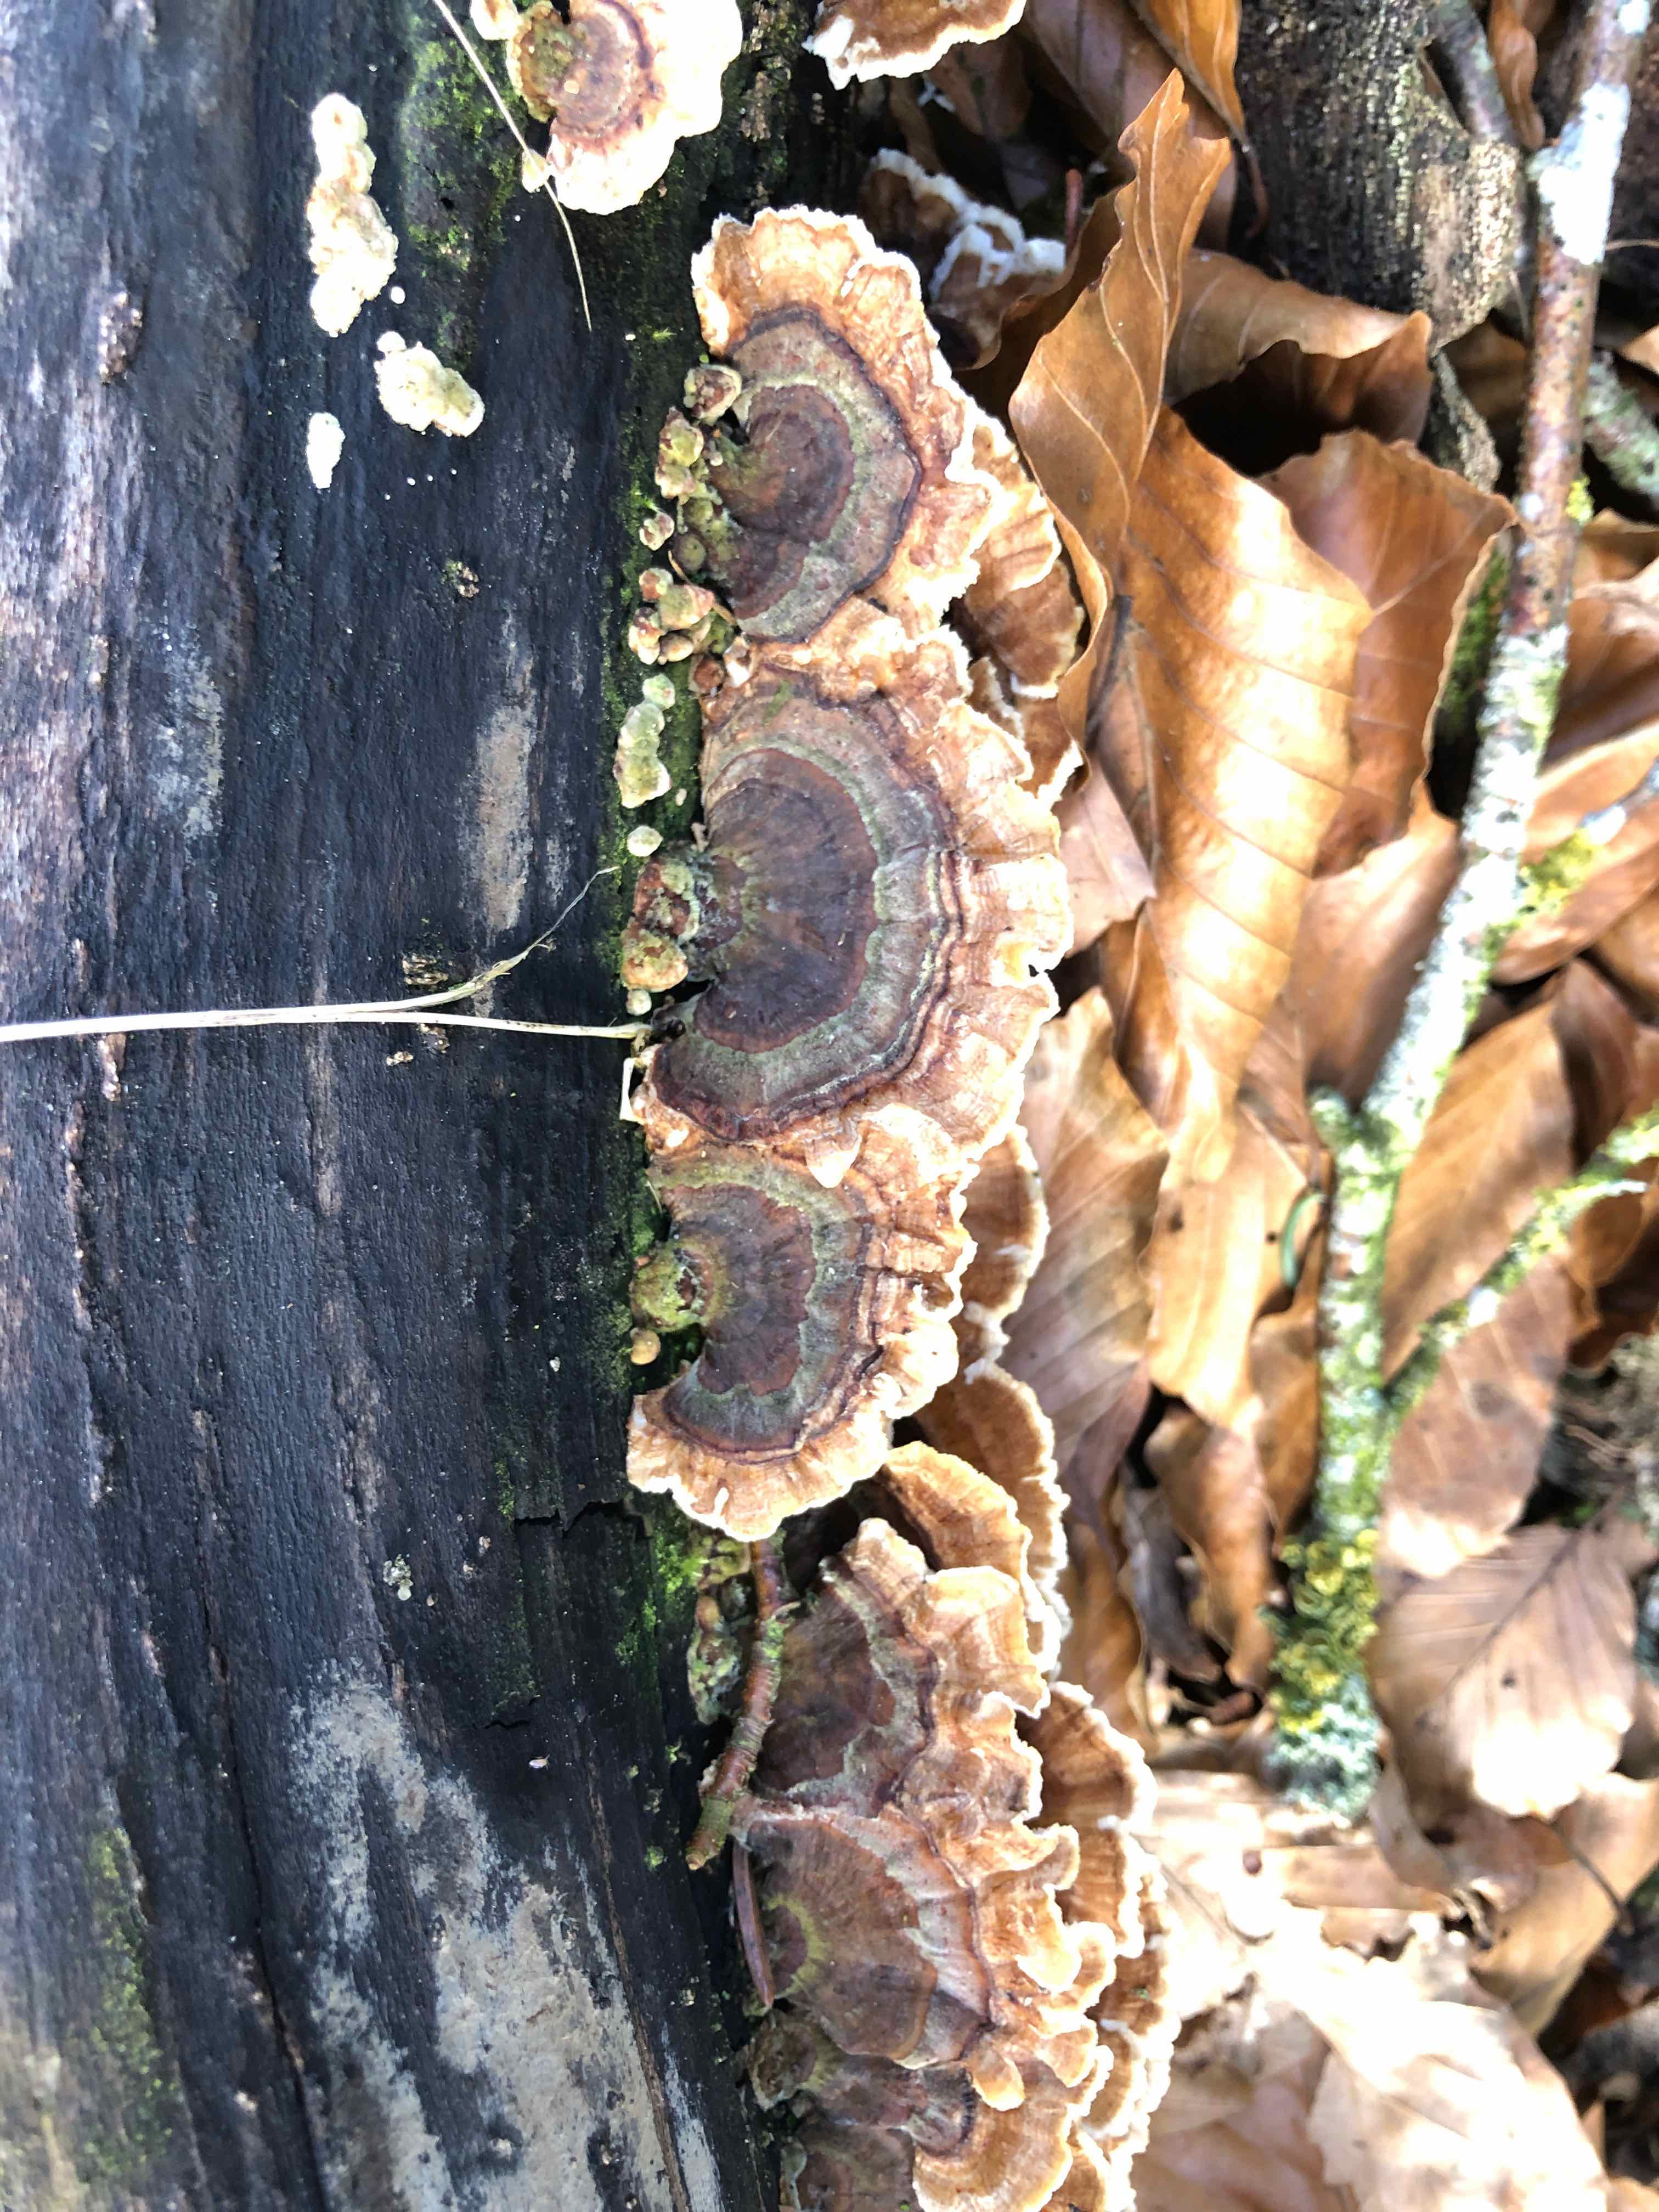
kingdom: Fungi
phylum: Basidiomycota
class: Agaricomycetes
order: Polyporales
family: Polyporaceae
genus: Trametes
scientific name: Trametes versicolor
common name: broget læderporesvamp
